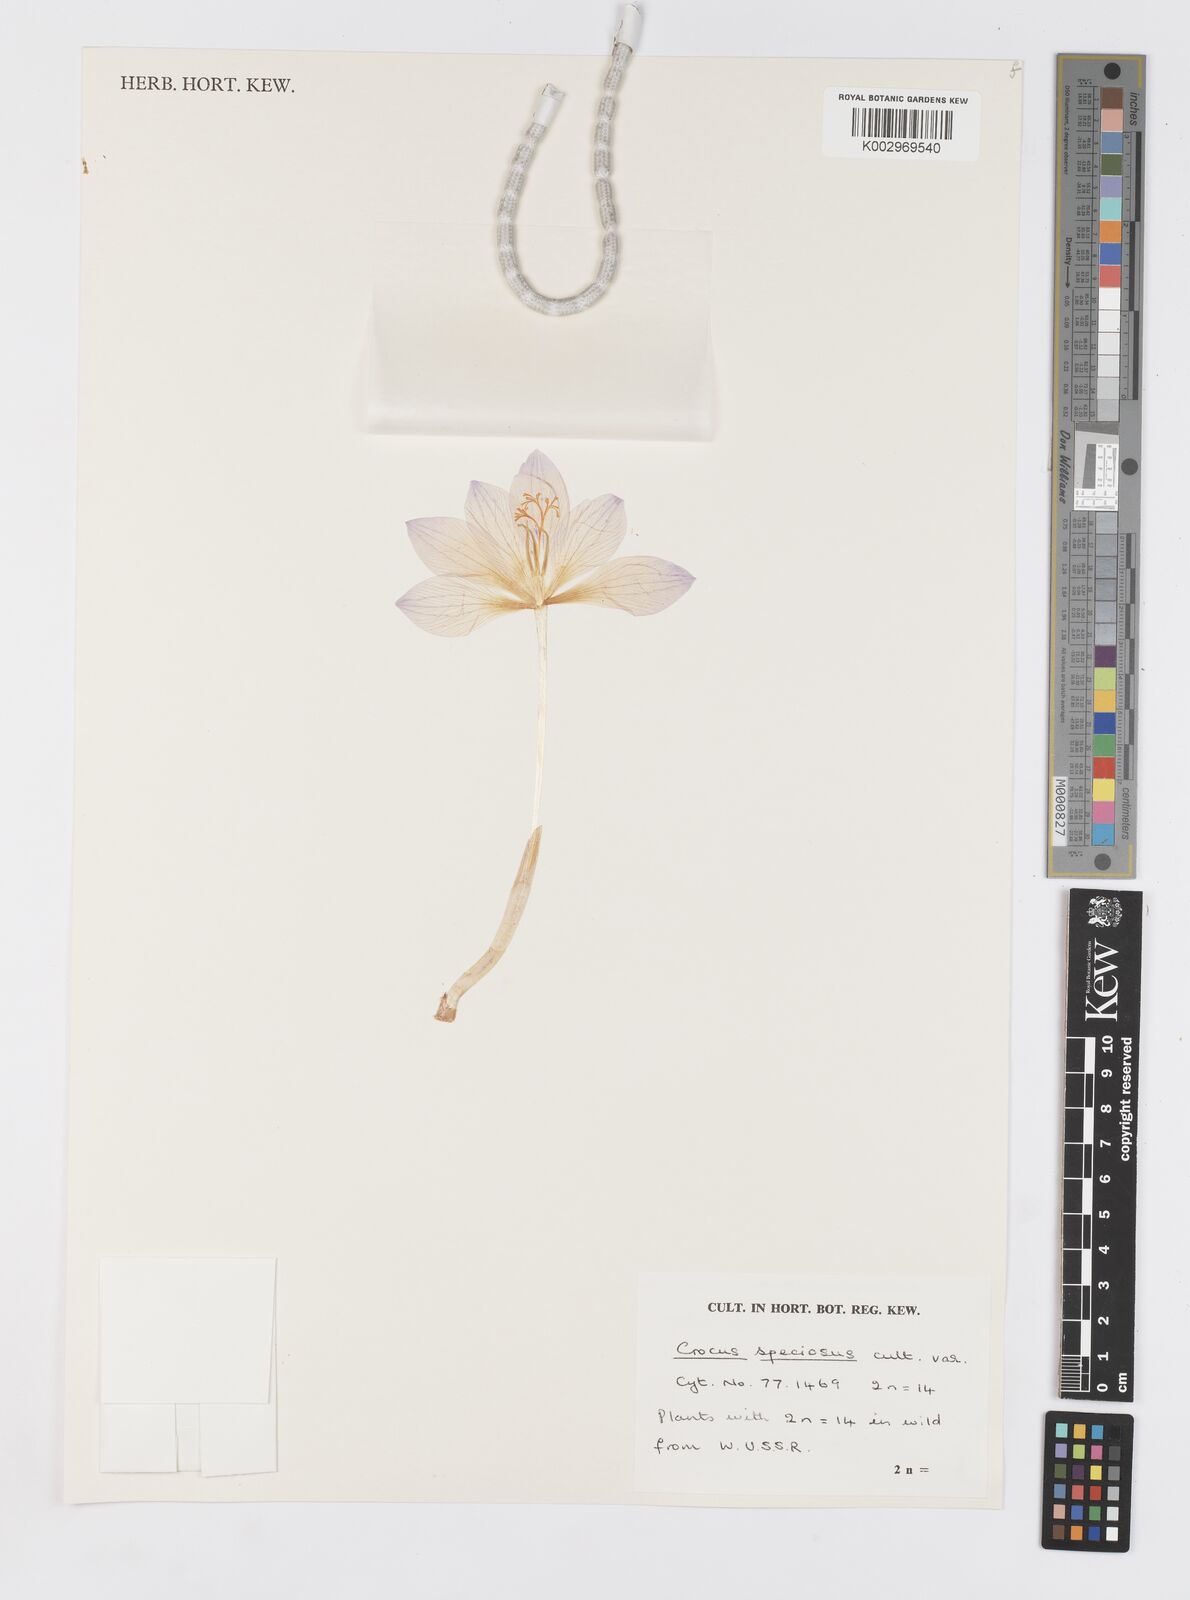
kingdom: Plantae
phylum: Tracheophyta
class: Liliopsida
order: Asparagales
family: Iridaceae
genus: Crocus
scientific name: Crocus speciosus
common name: Bieberstein's crocus
